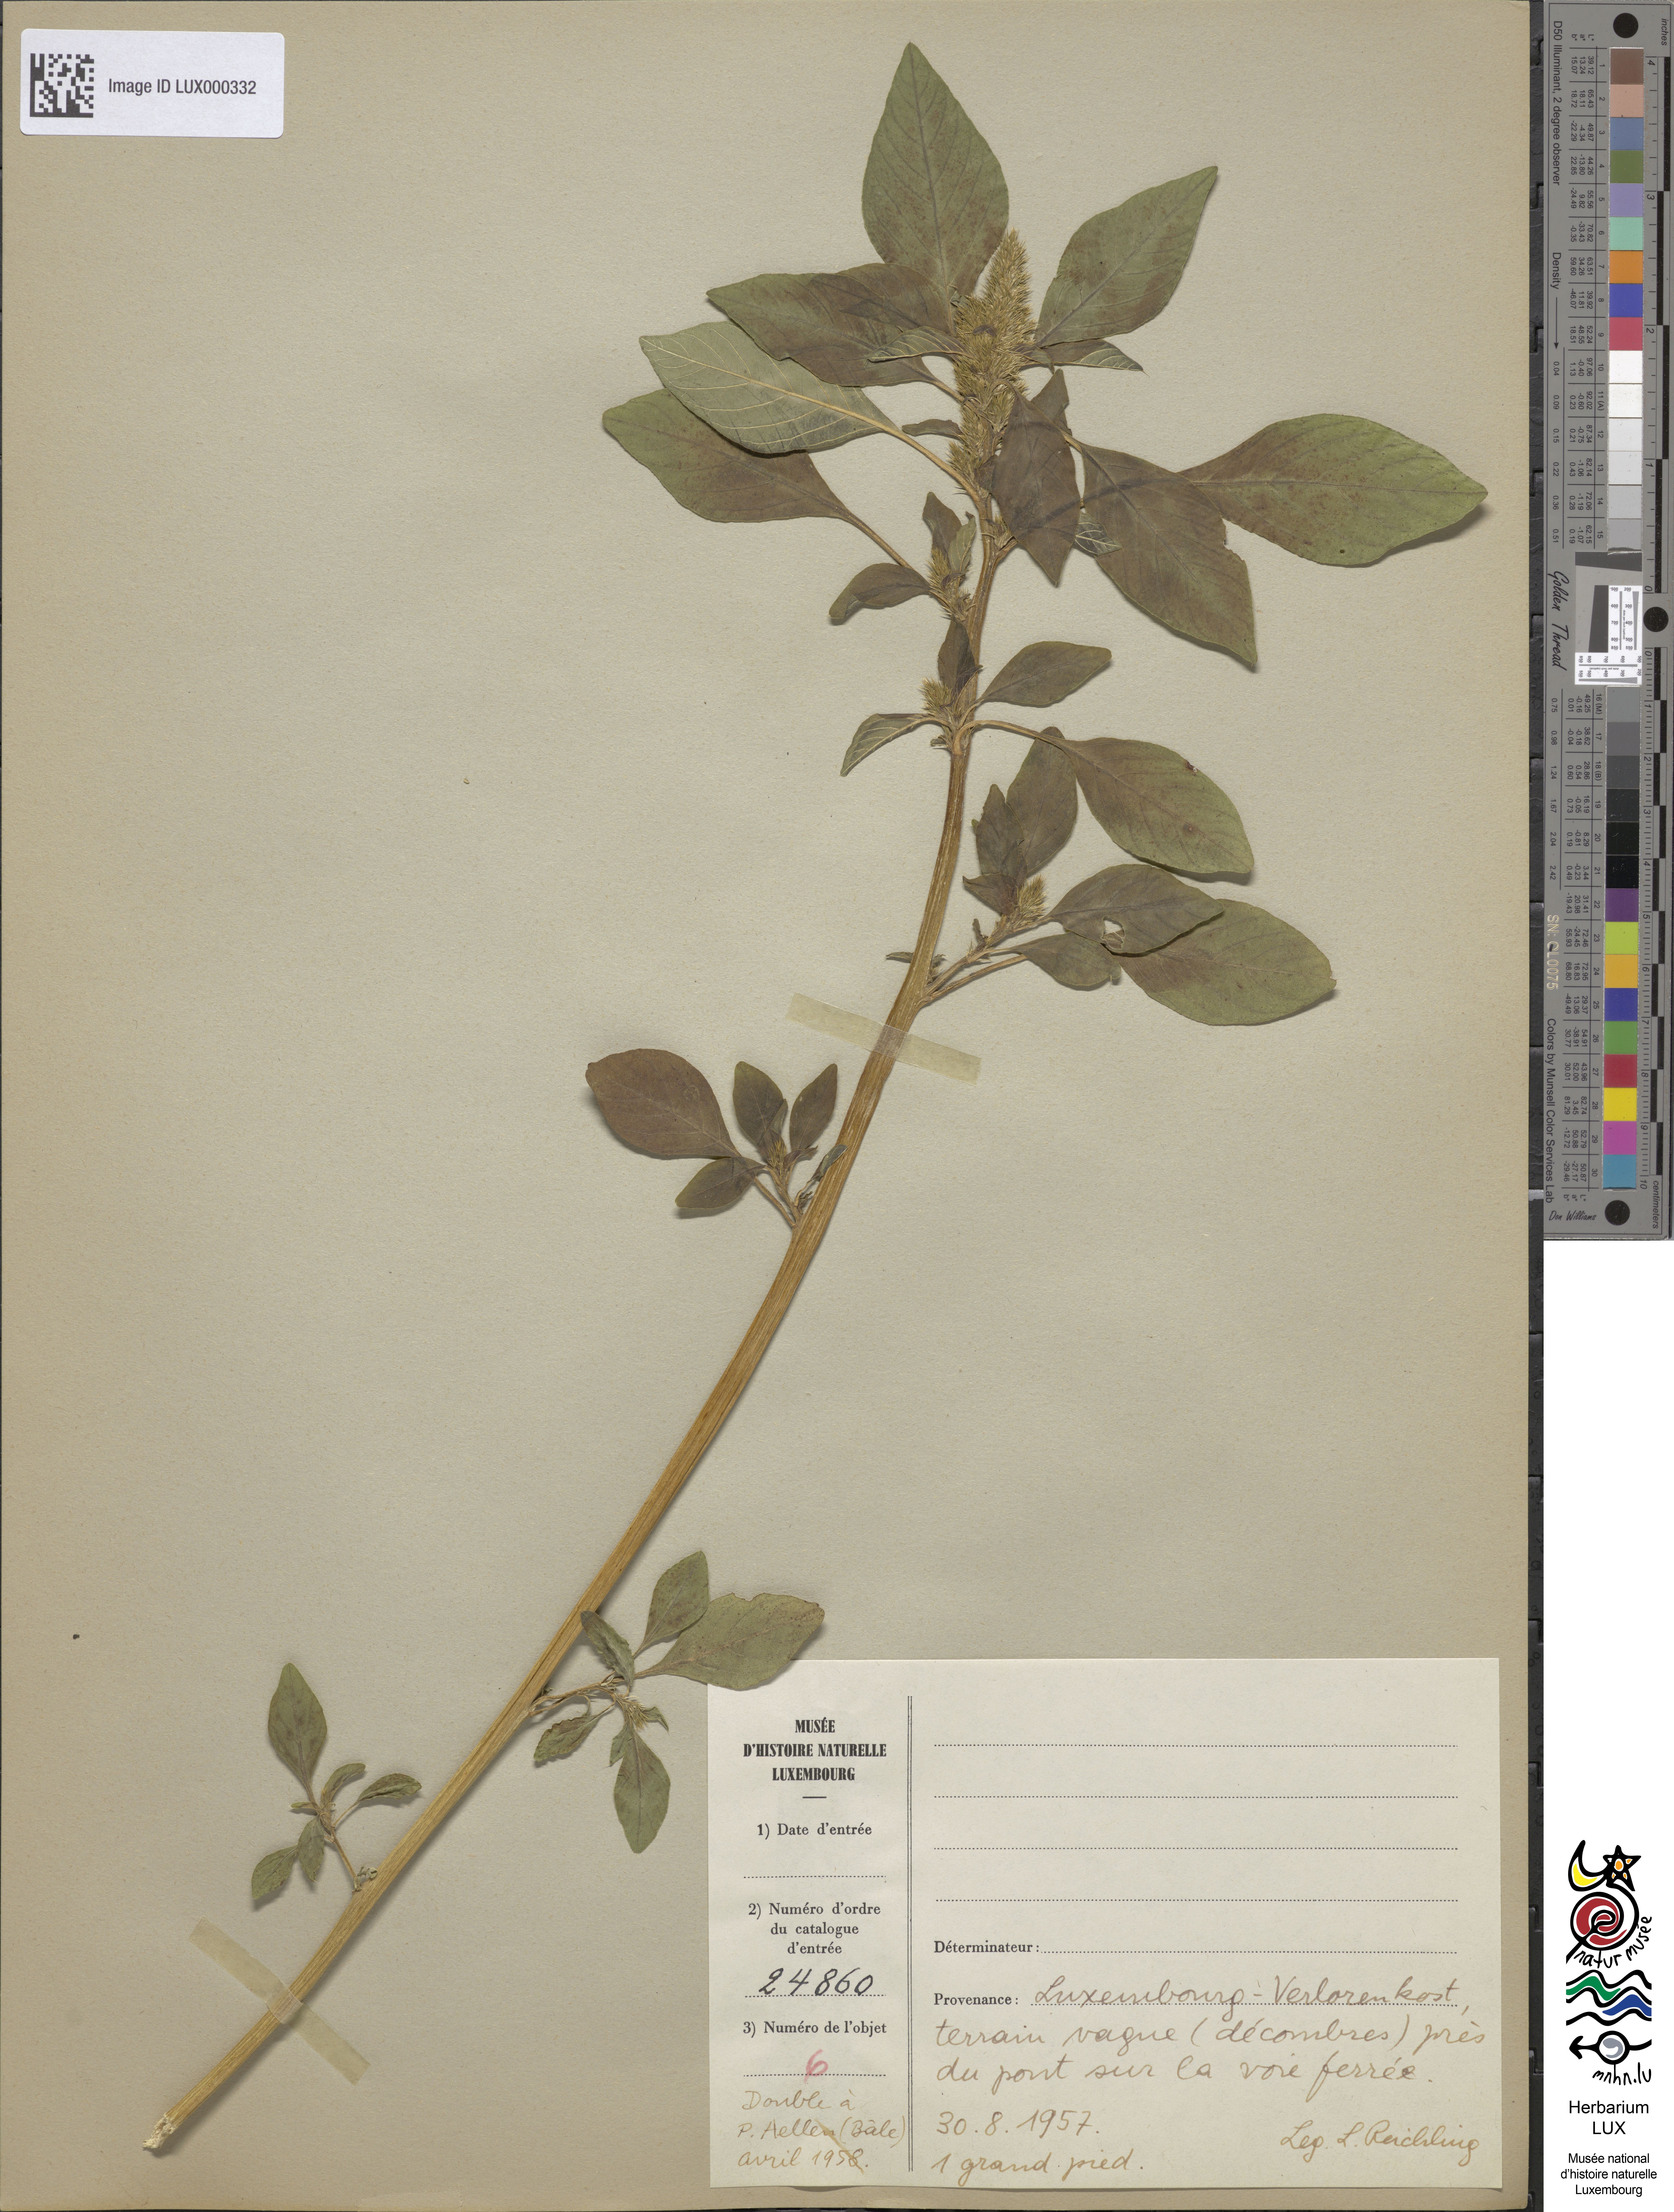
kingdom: Plantae
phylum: Tracheophyta
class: Magnoliopsida
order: Caryophyllales
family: Amaranthaceae
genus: Amaranthus
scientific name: Amaranthus bouchonii
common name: Indehiscent amaranth
